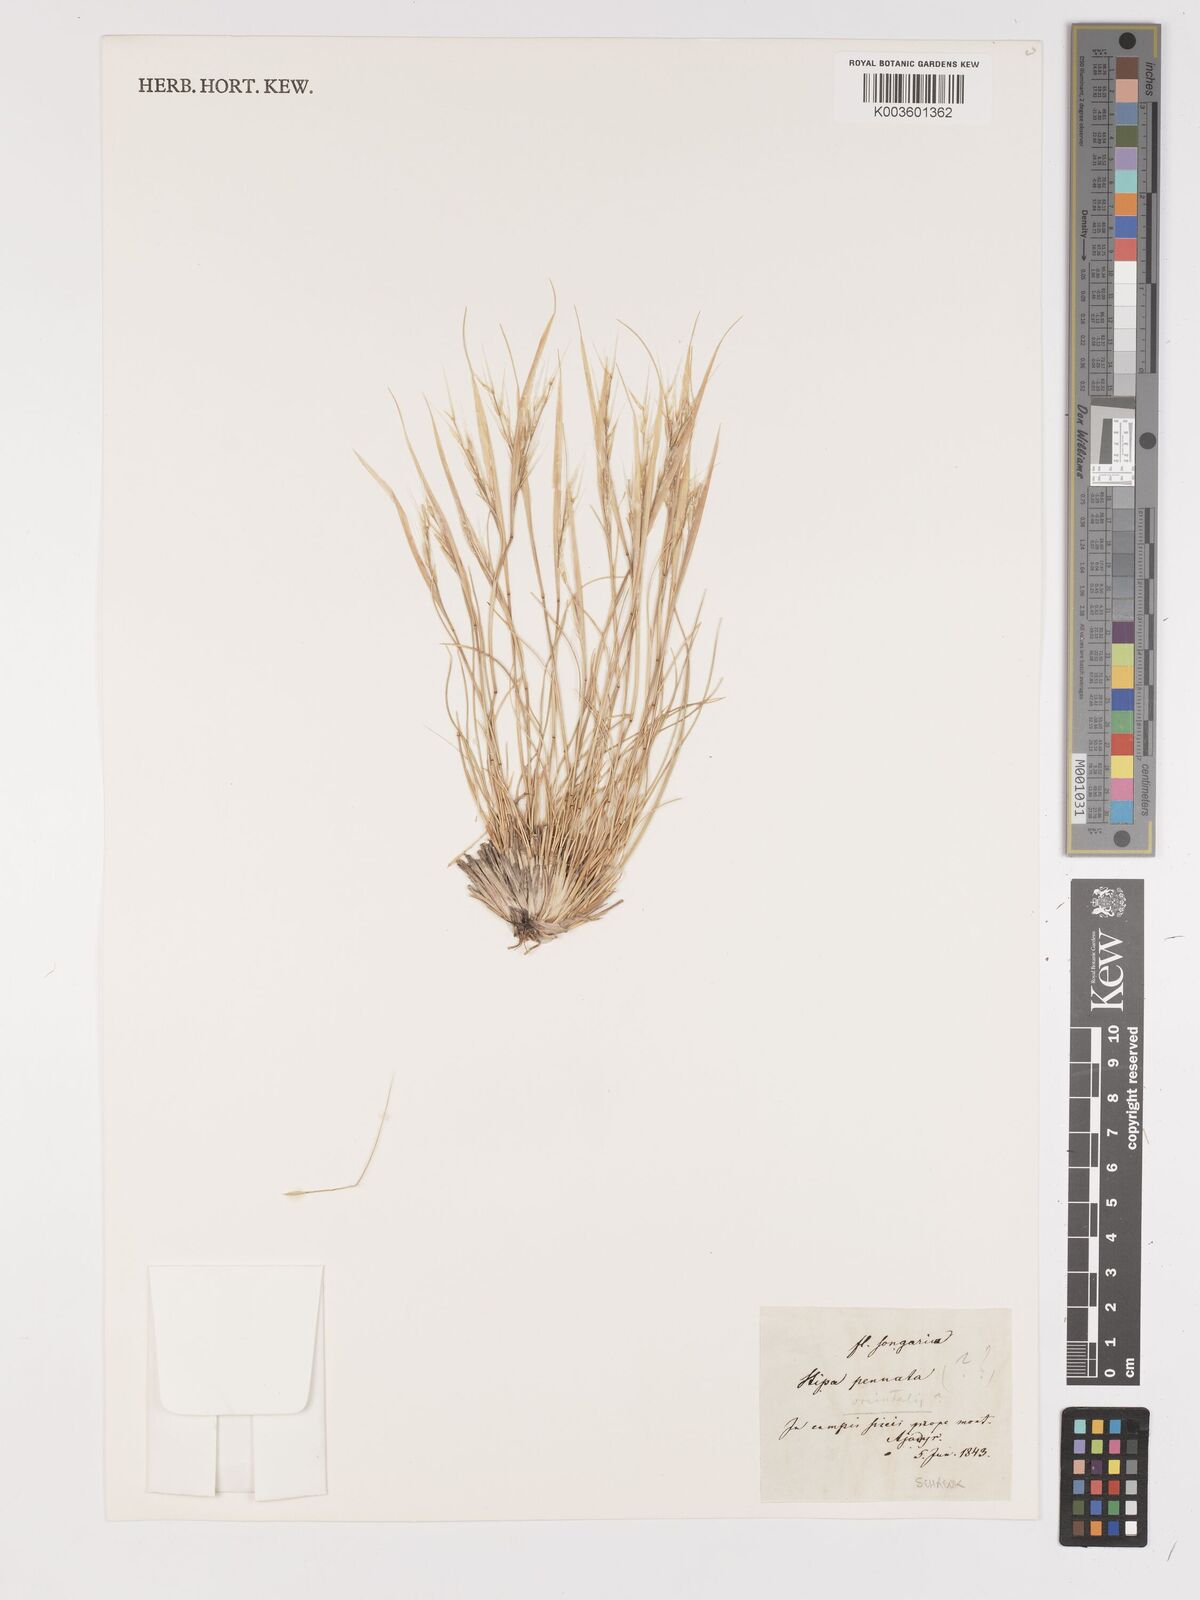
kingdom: Plantae
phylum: Tracheophyta
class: Liliopsida
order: Poales
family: Poaceae
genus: Stipa
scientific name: Stipa orientalis
